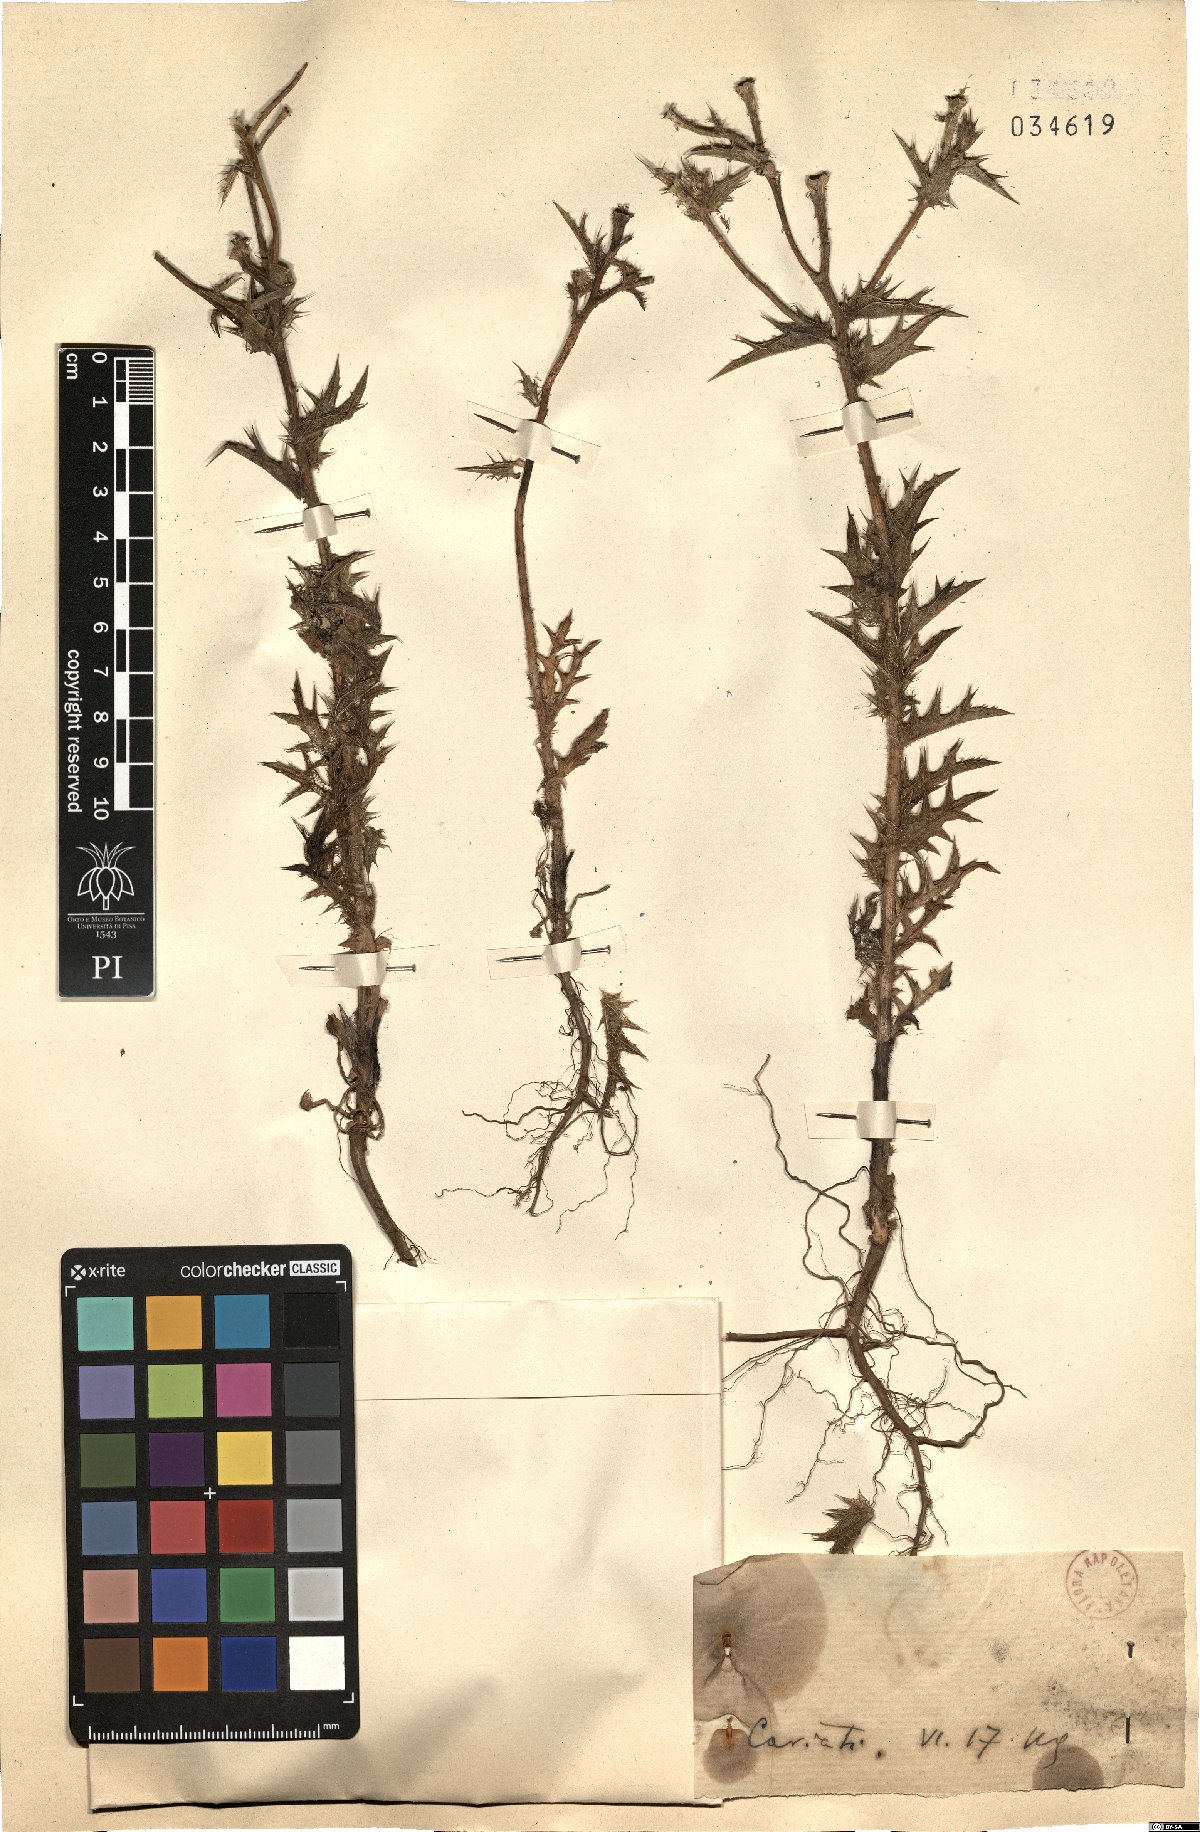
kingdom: Plantae
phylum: Tracheophyta
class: Magnoliopsida
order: Asterales
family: Asteraceae
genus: Carthamus
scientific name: Carthamus
